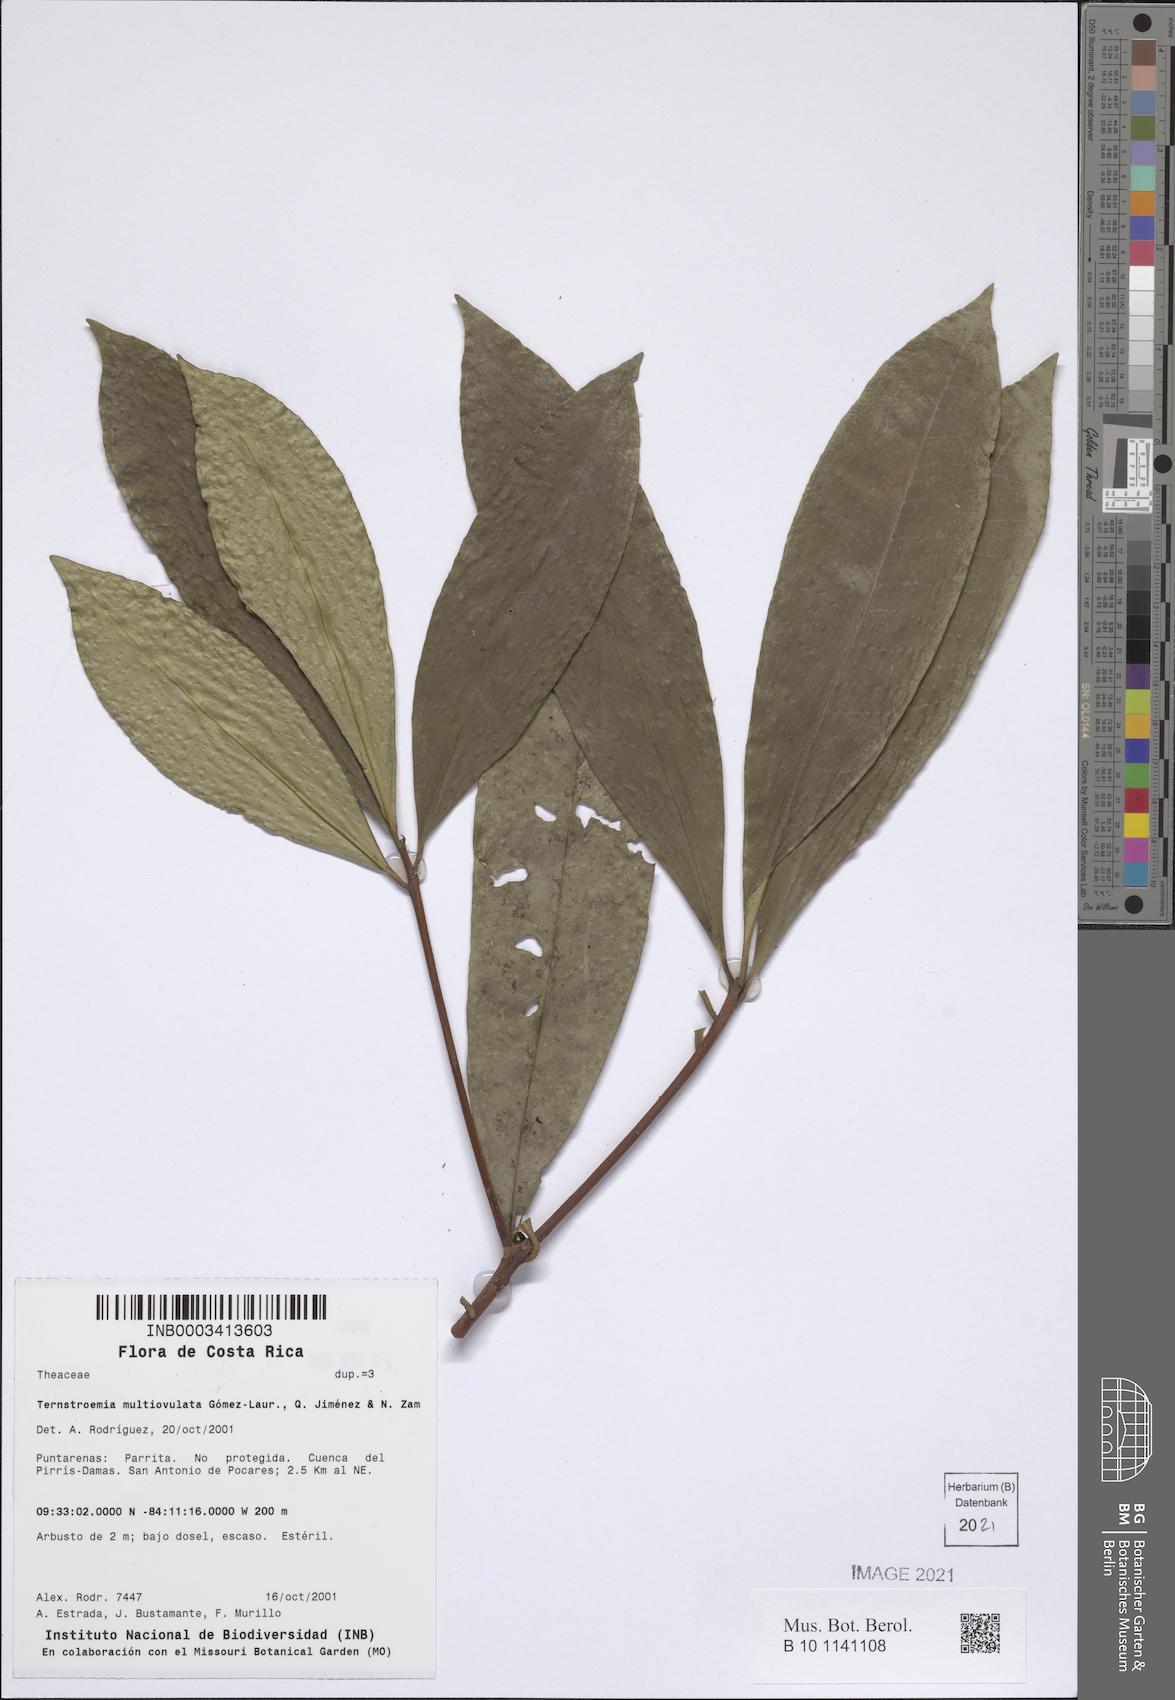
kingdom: Plantae
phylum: Tracheophyta
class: Magnoliopsida
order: Ericales
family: Pentaphylacaceae
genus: Ternstroemia
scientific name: Ternstroemia multiovulata
